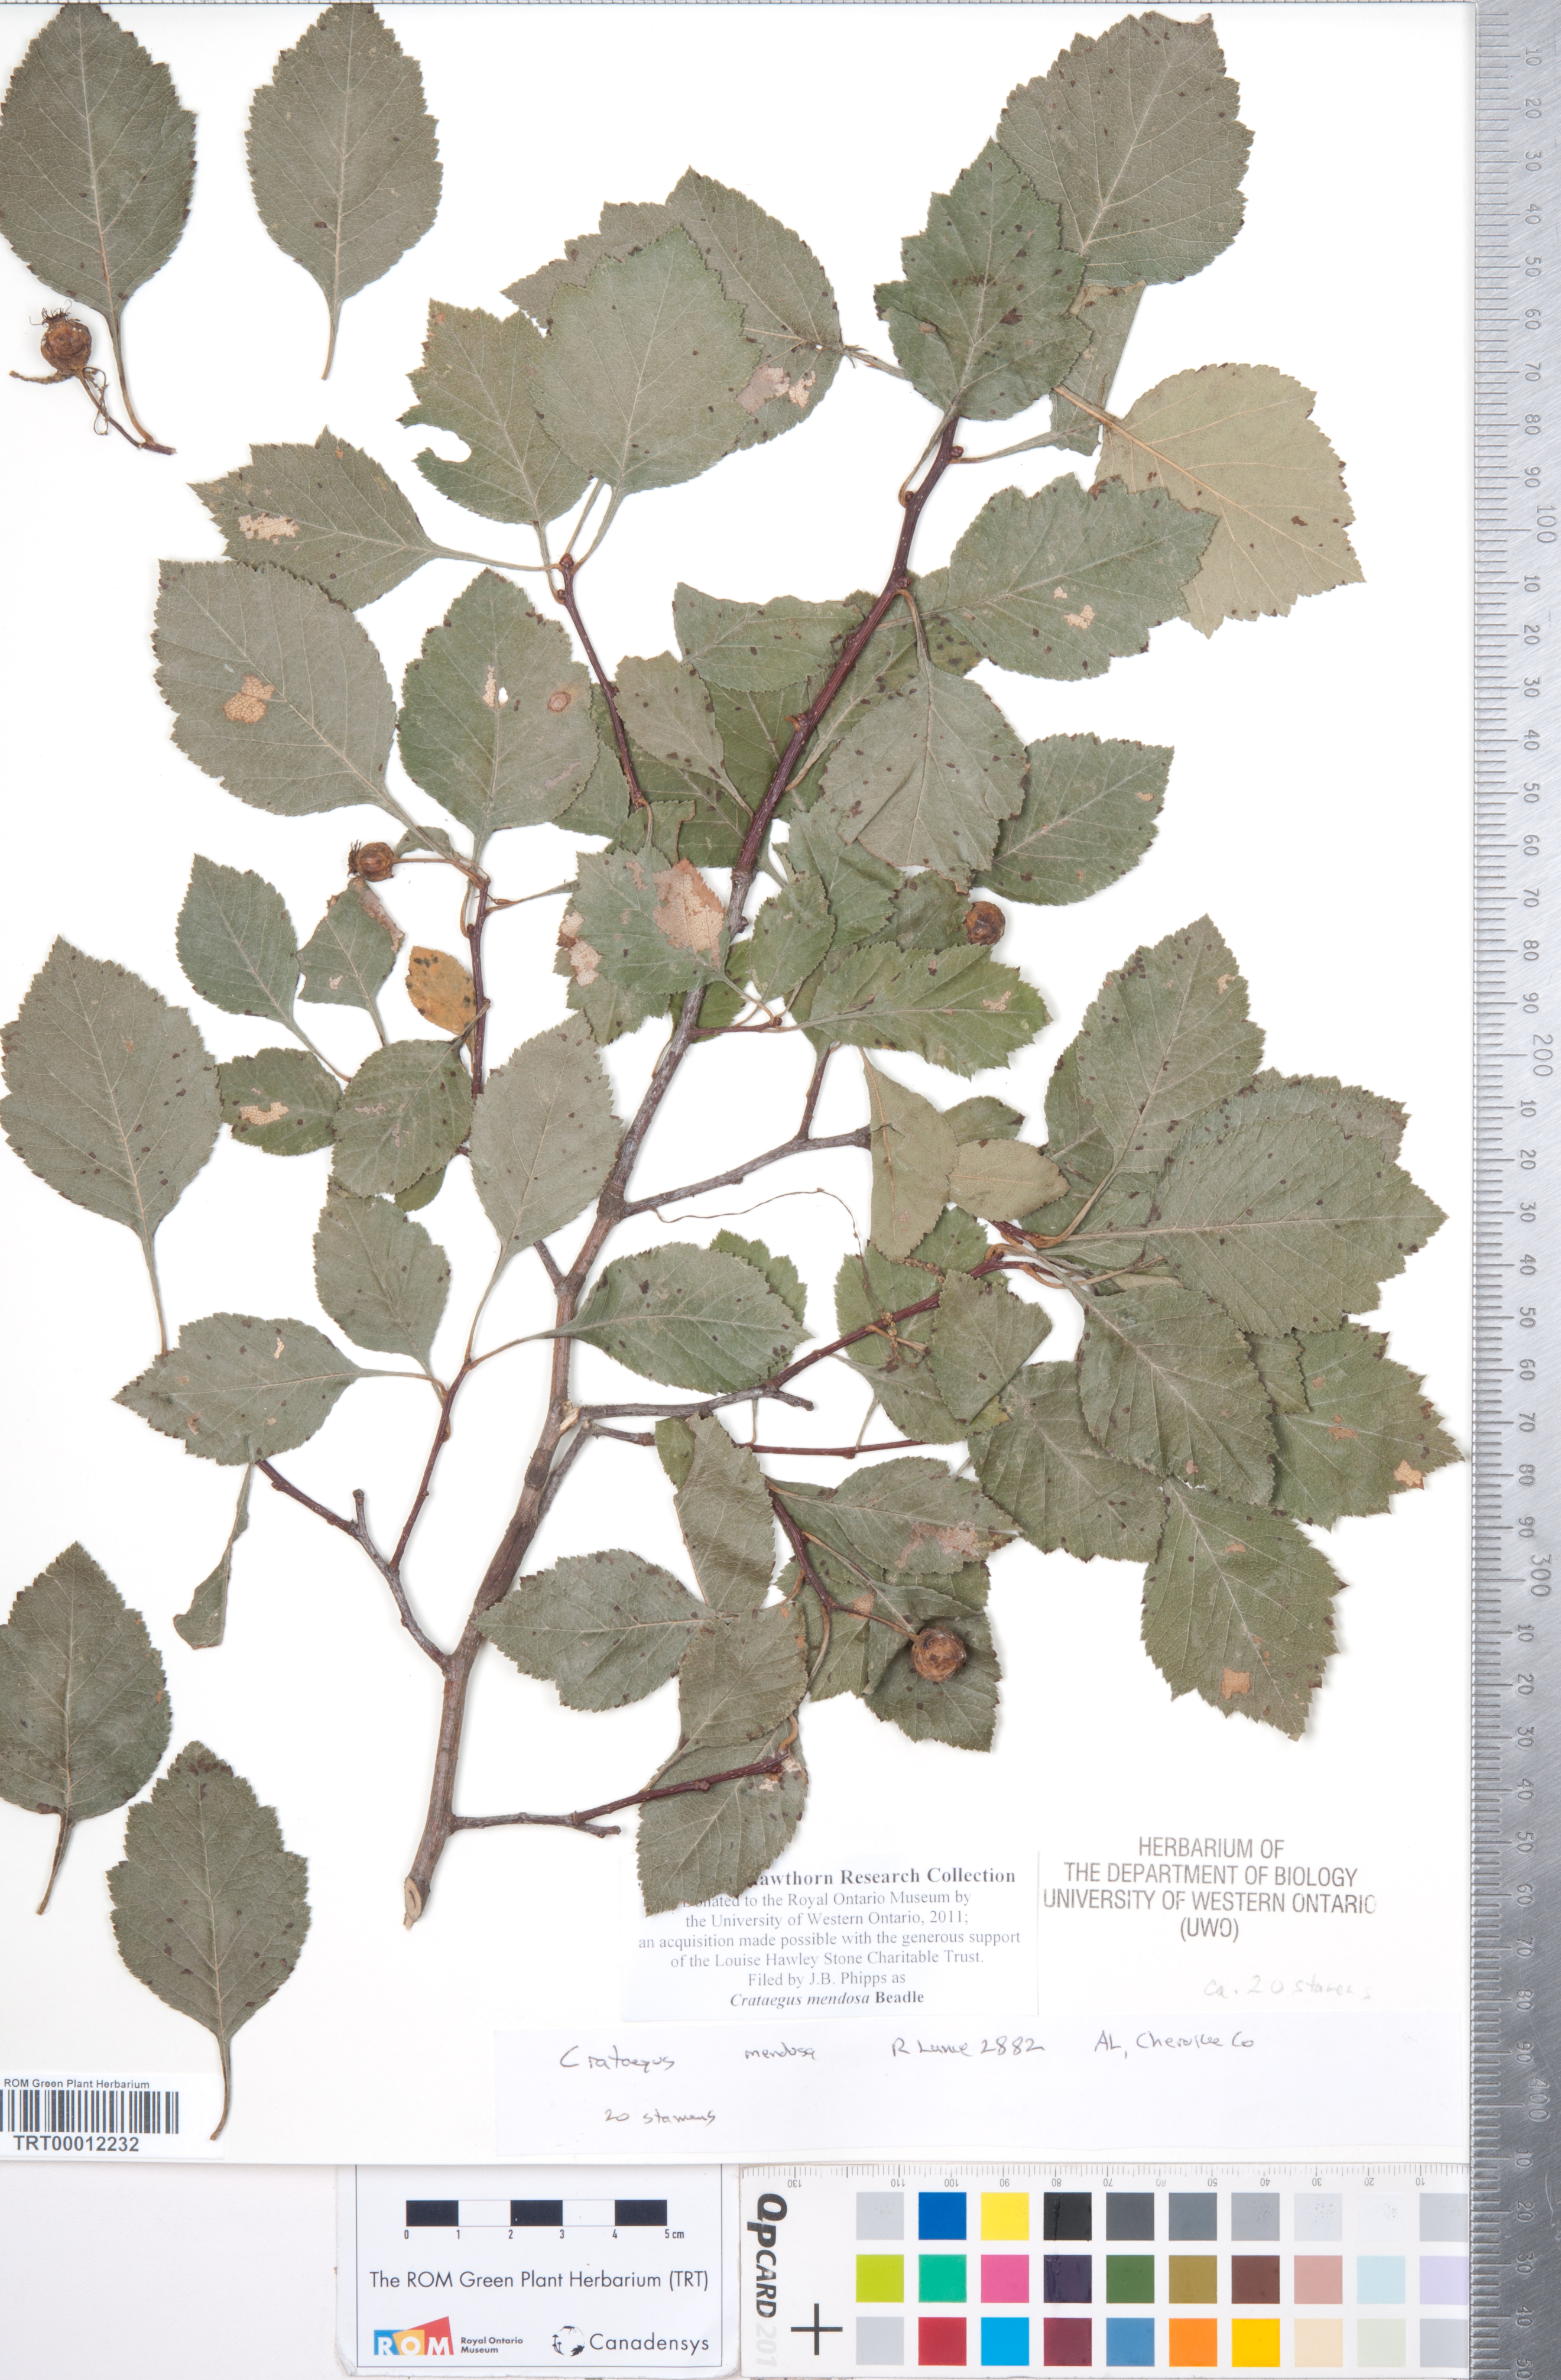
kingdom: Plantae
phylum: Tracheophyta
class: Magnoliopsida
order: Rosales
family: Rosaceae
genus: Crataegus
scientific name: Crataegus pulcherrima
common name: Beautiful hawthorn
